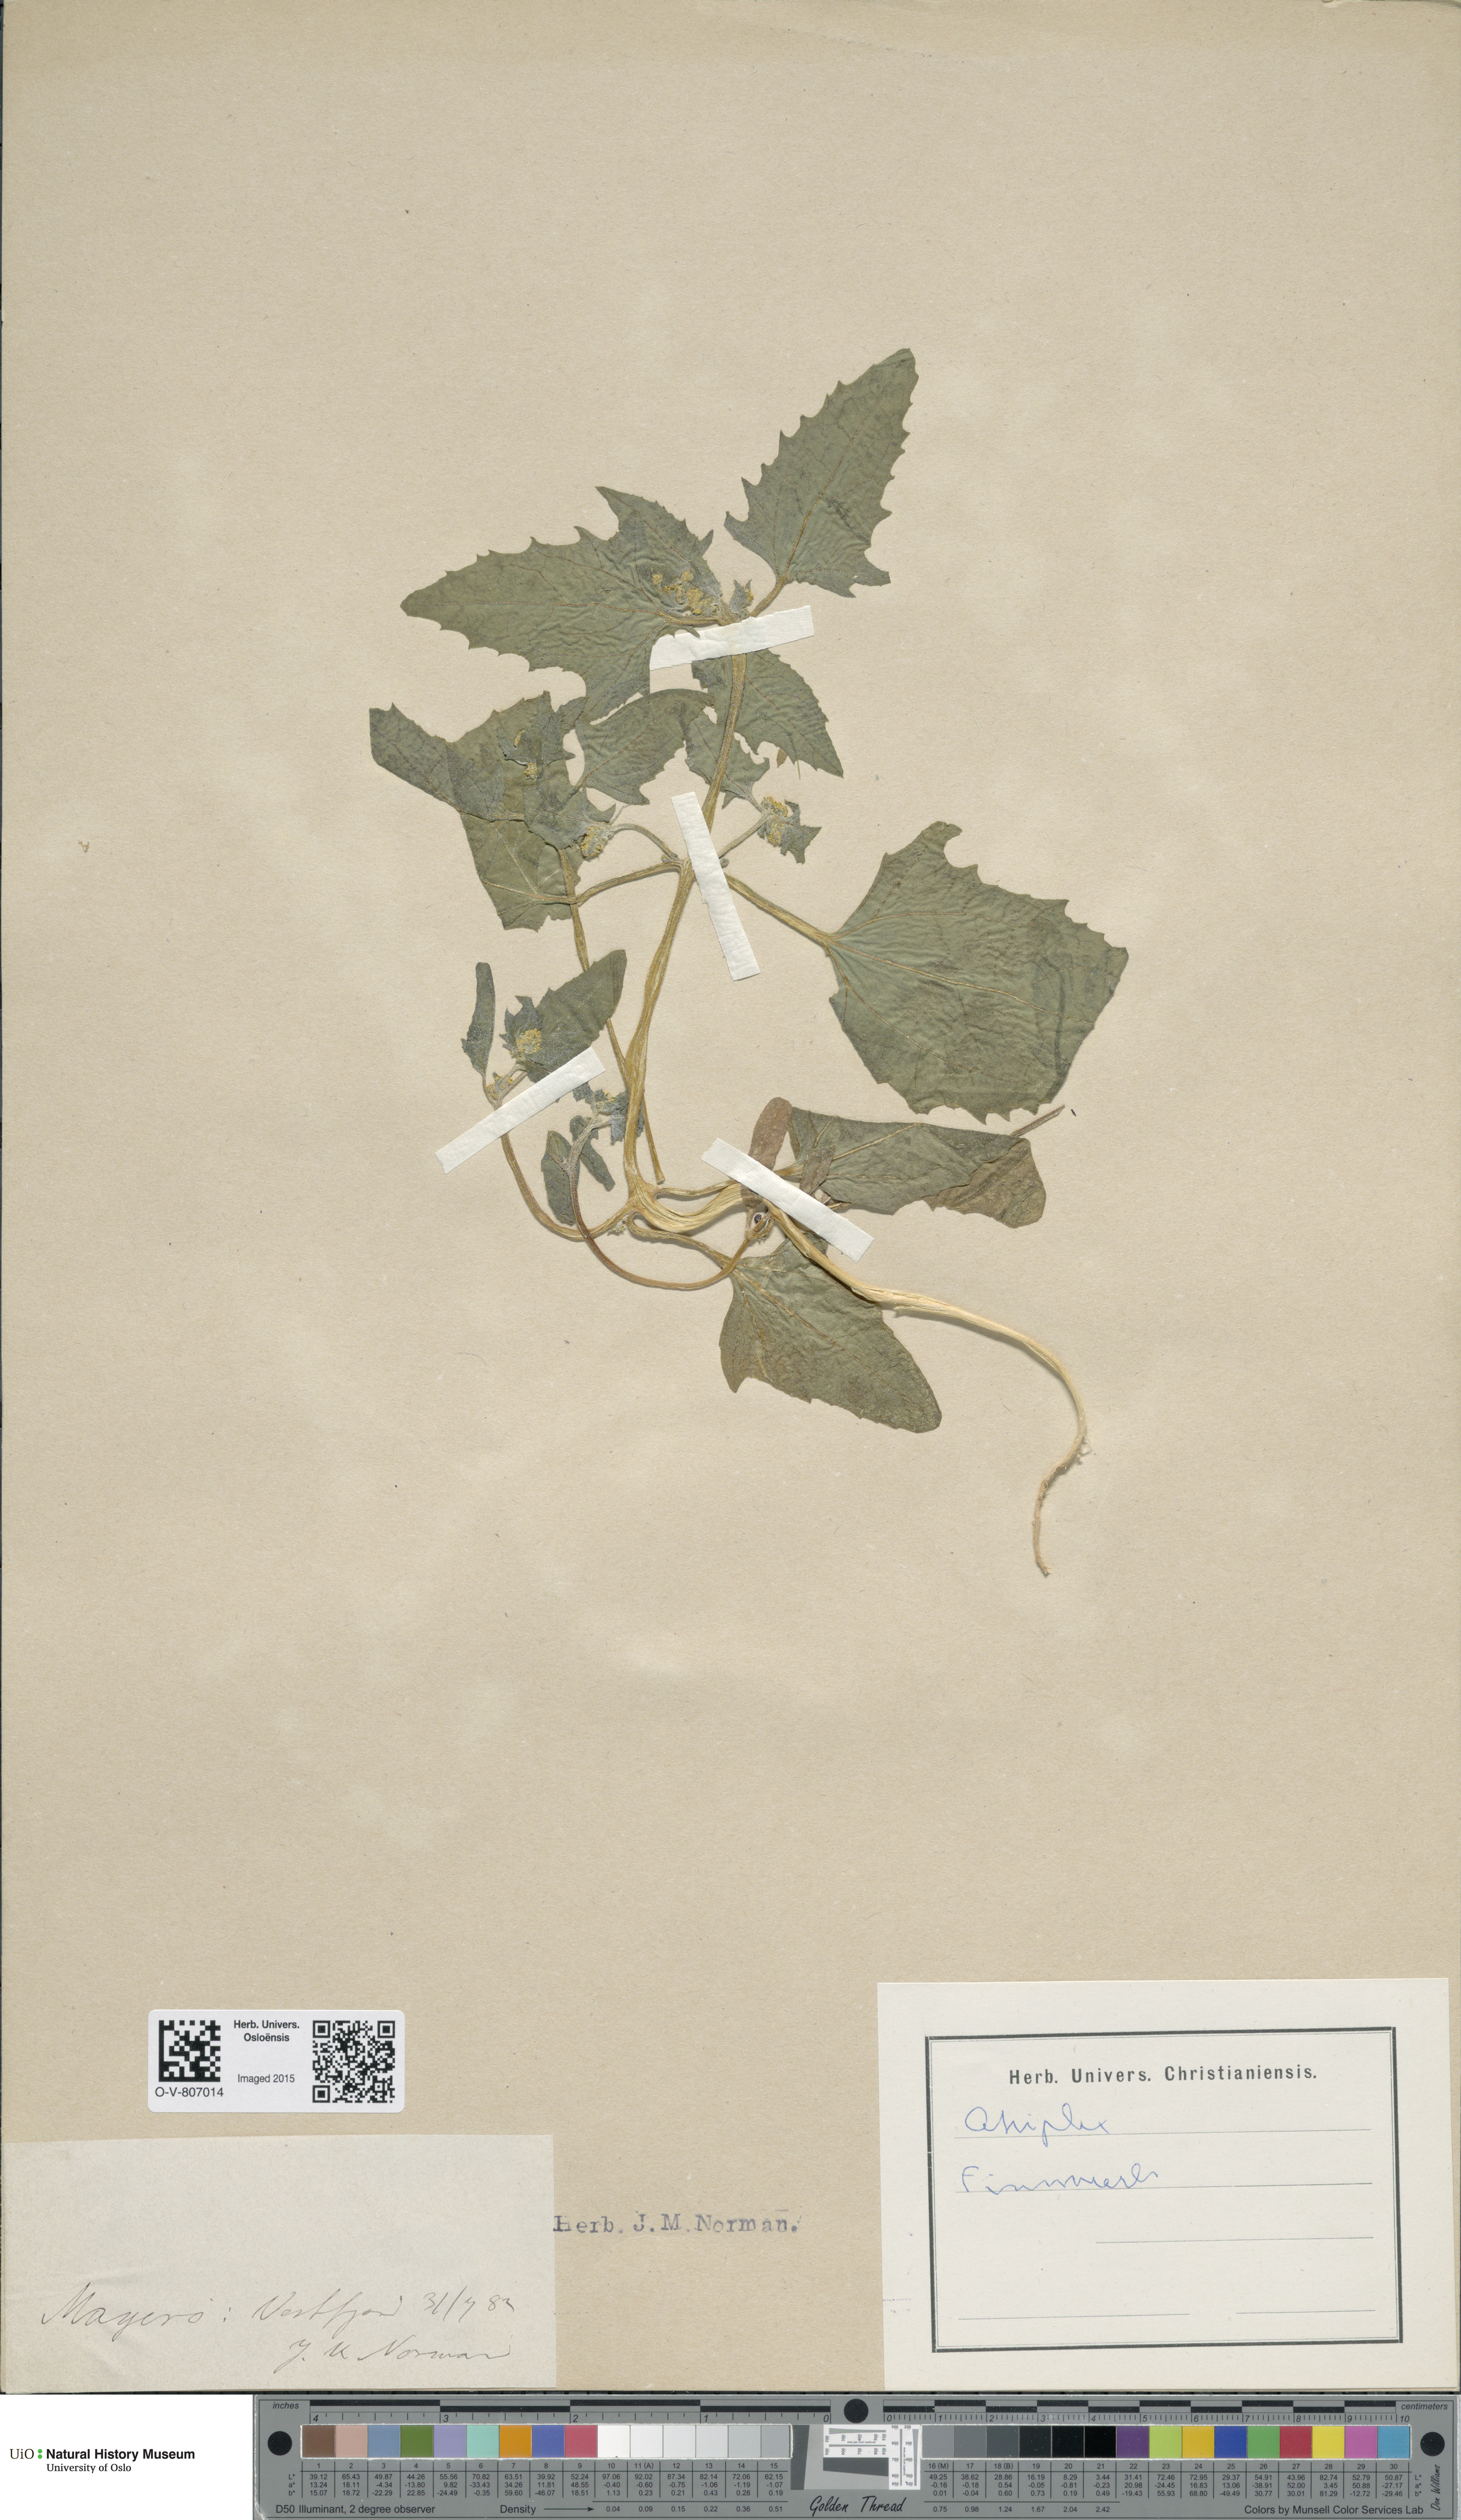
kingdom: Plantae
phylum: Tracheophyta
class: Magnoliopsida
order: Caryophyllales
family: Amaranthaceae
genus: Atriplex
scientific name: Atriplex
